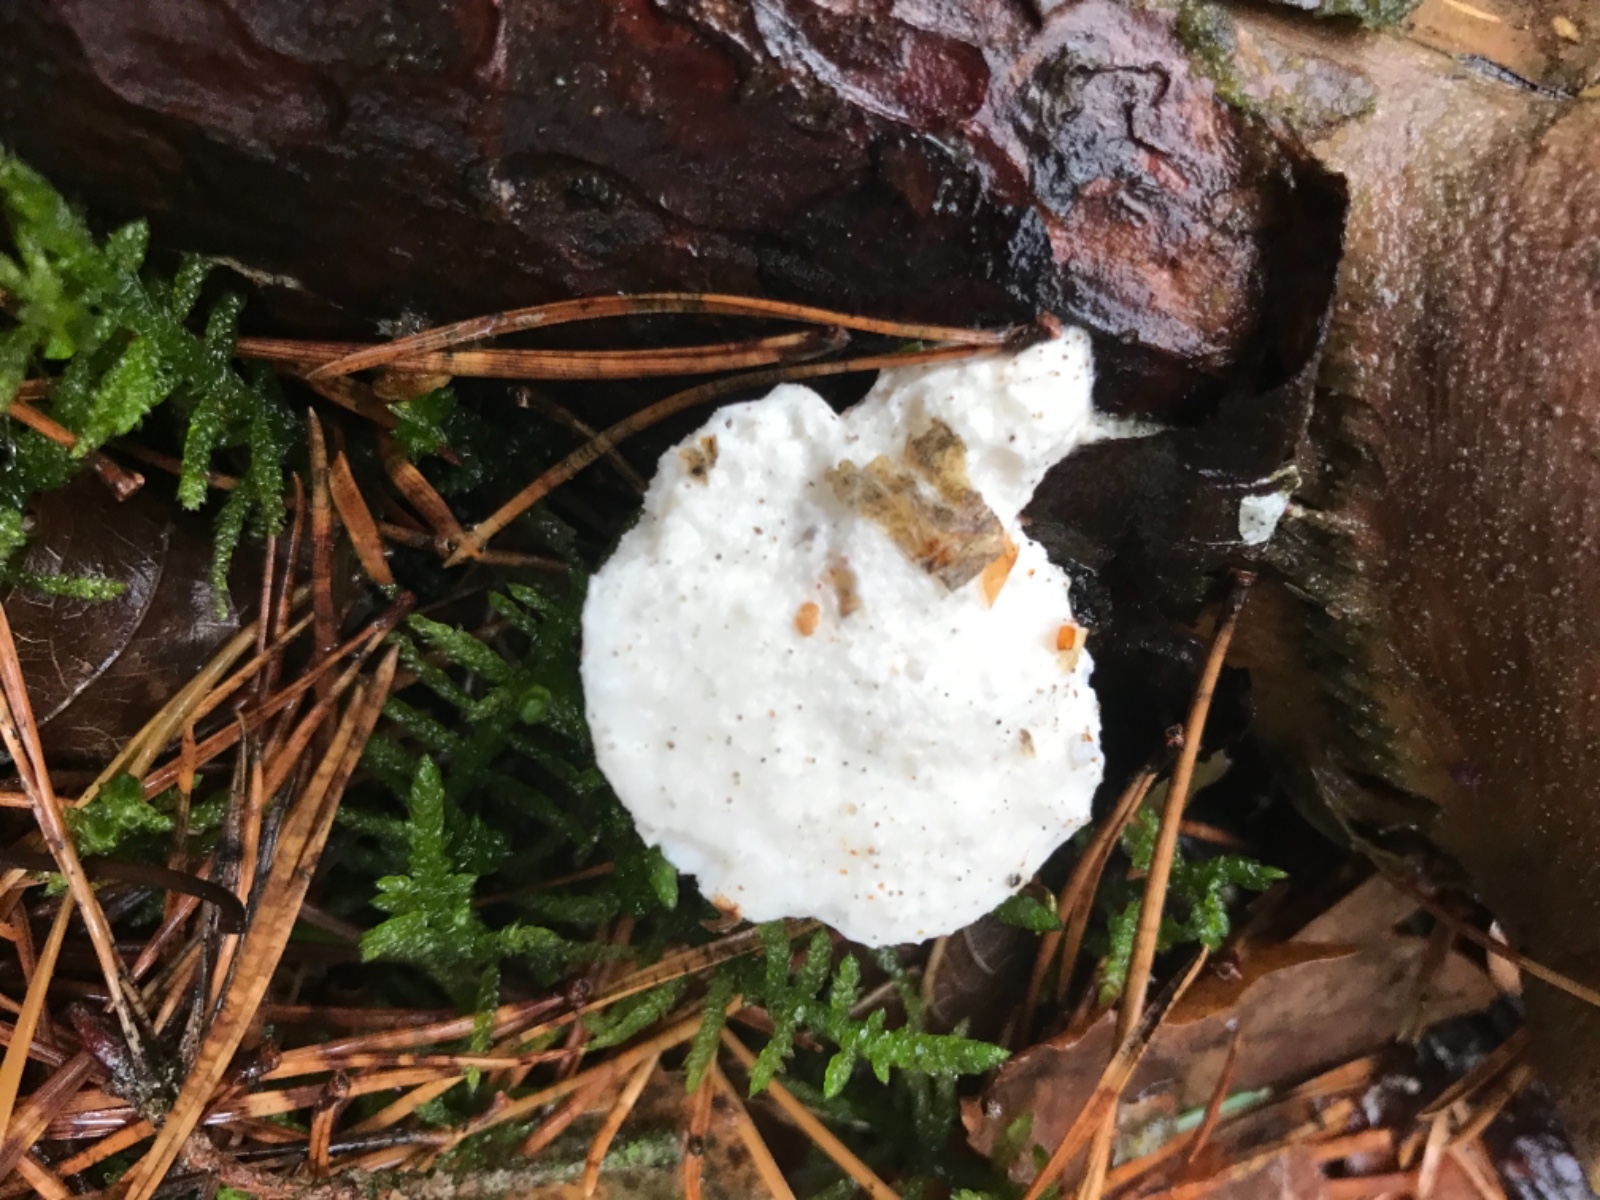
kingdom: Fungi
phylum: Basidiomycota
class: Agaricomycetes
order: Polyporales
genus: Amaropostia
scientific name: Amaropostia stiptica
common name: bitter kødporesvamp
